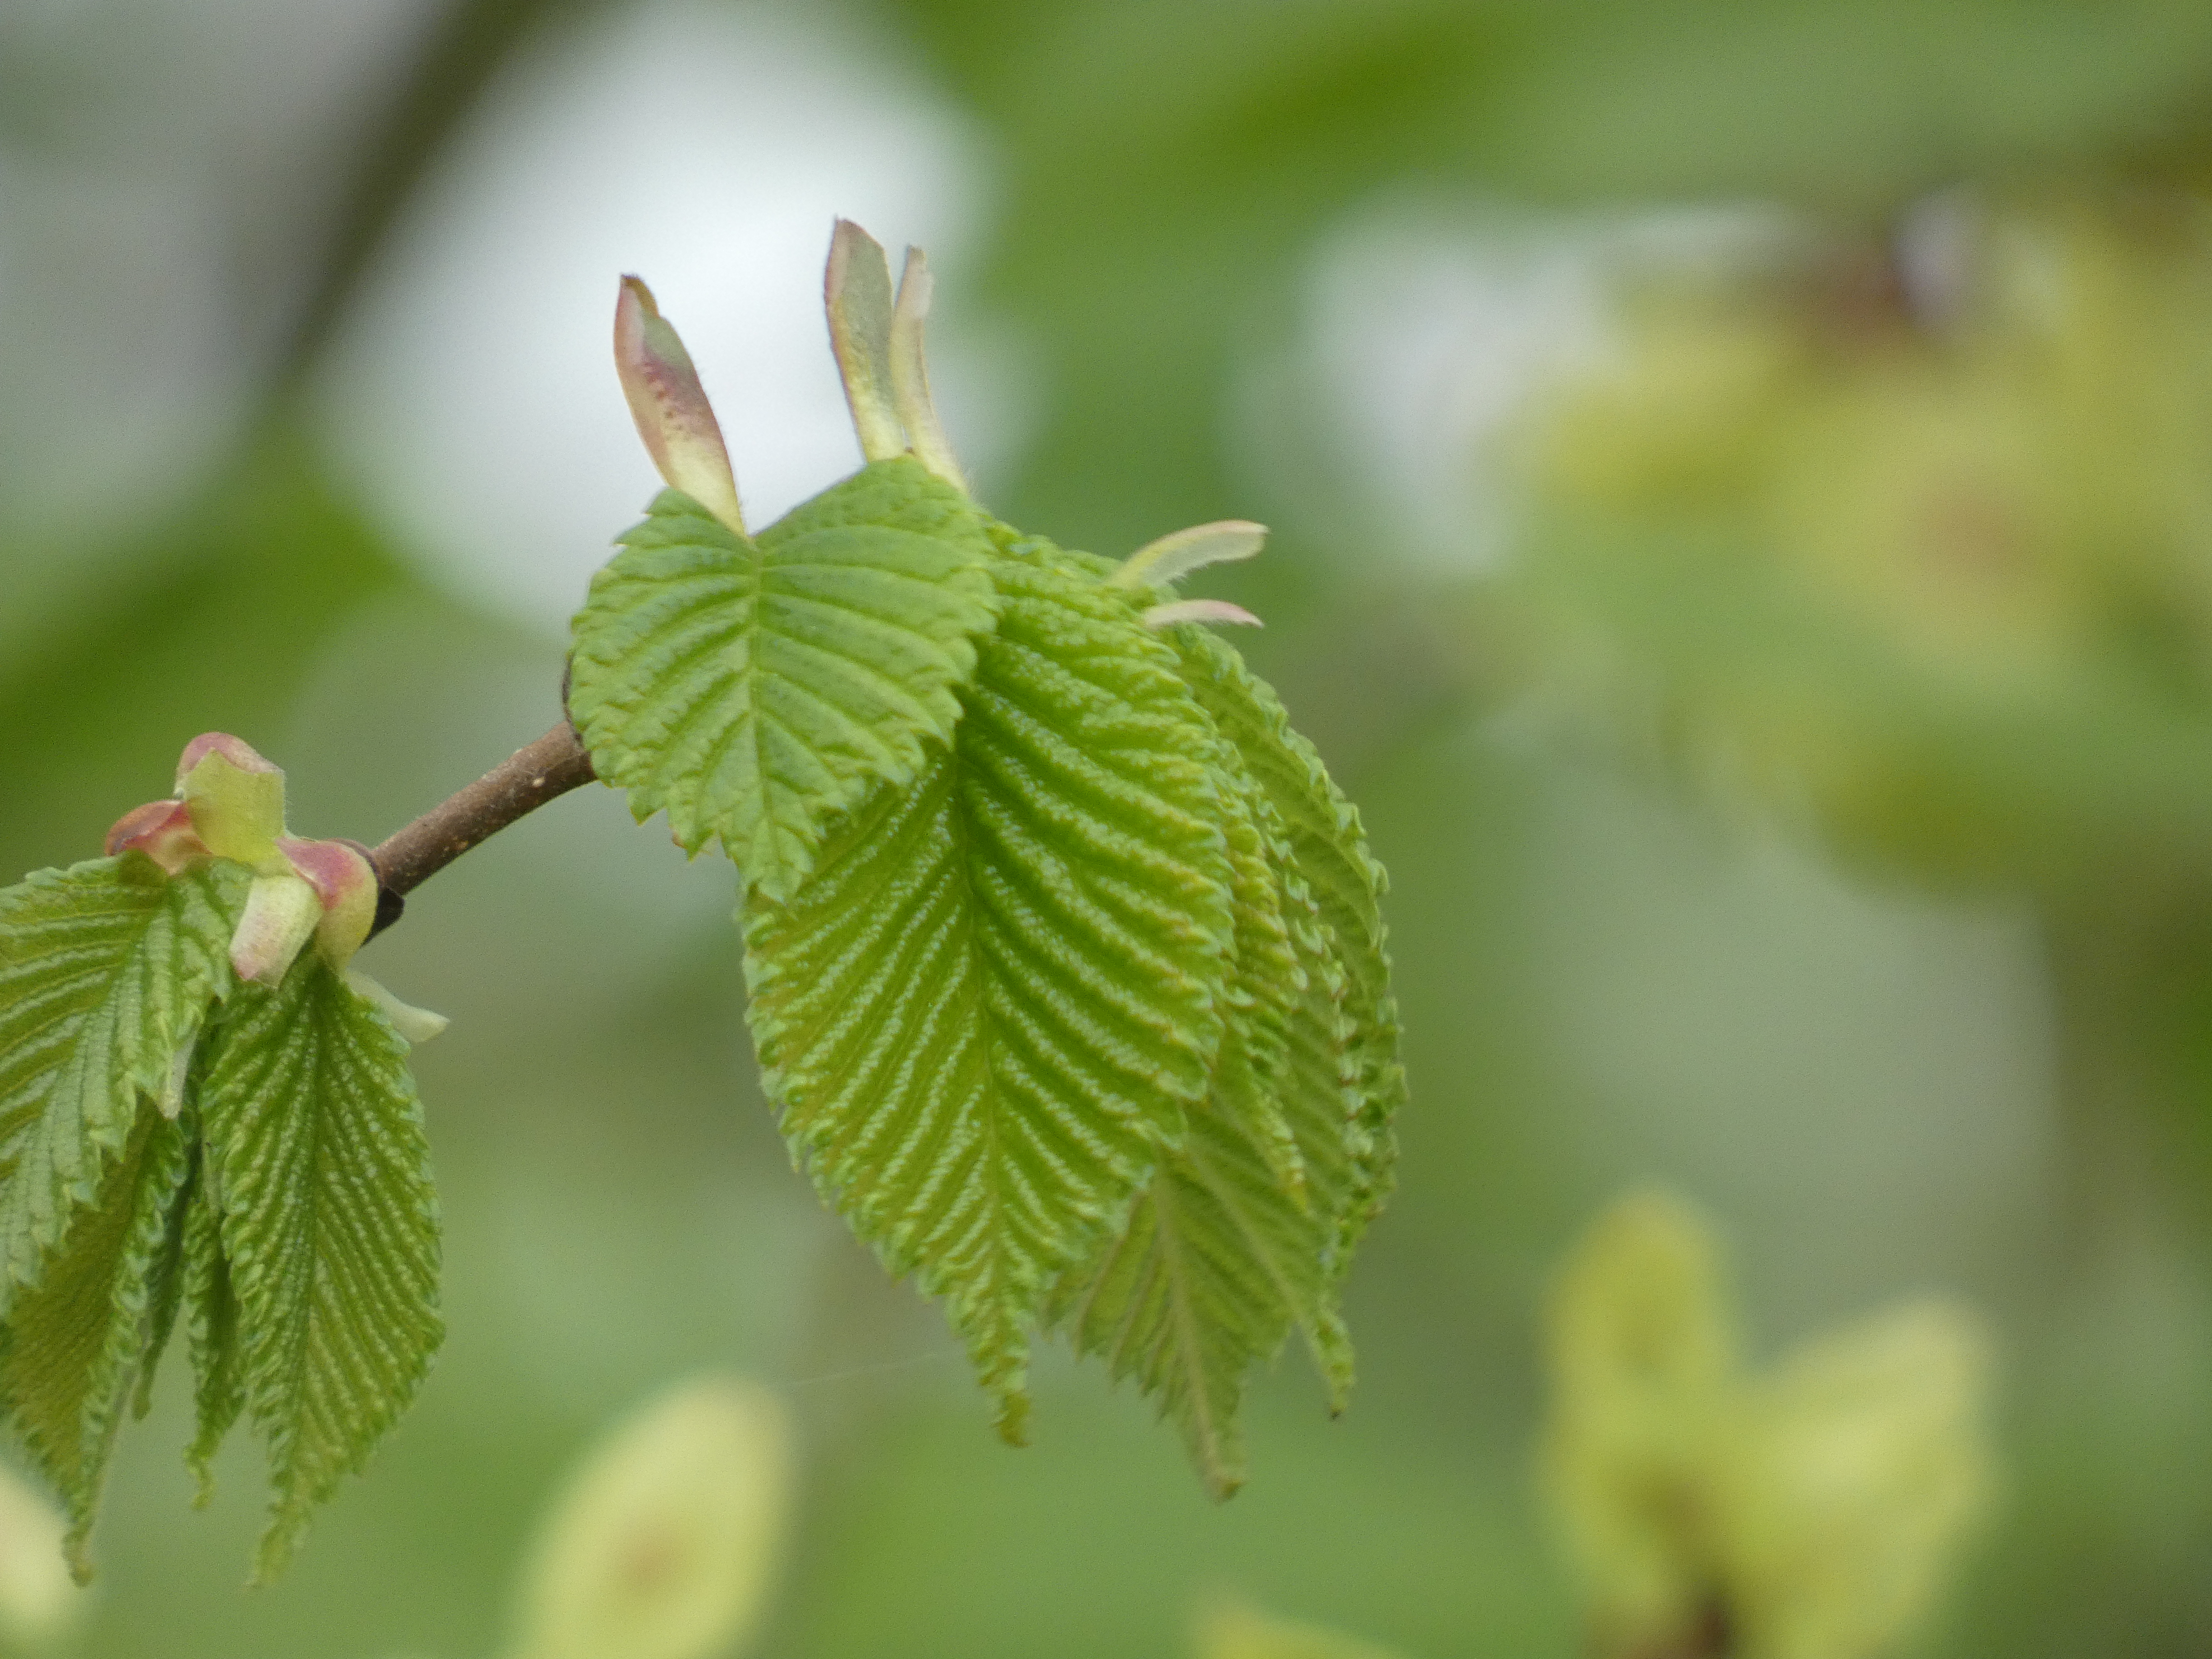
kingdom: Plantae
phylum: Tracheophyta
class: Magnoliopsida
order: Rosales
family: Ulmaceae
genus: Ulmus
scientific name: Ulmus glabra
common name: Skov-elm/storbladet elm
